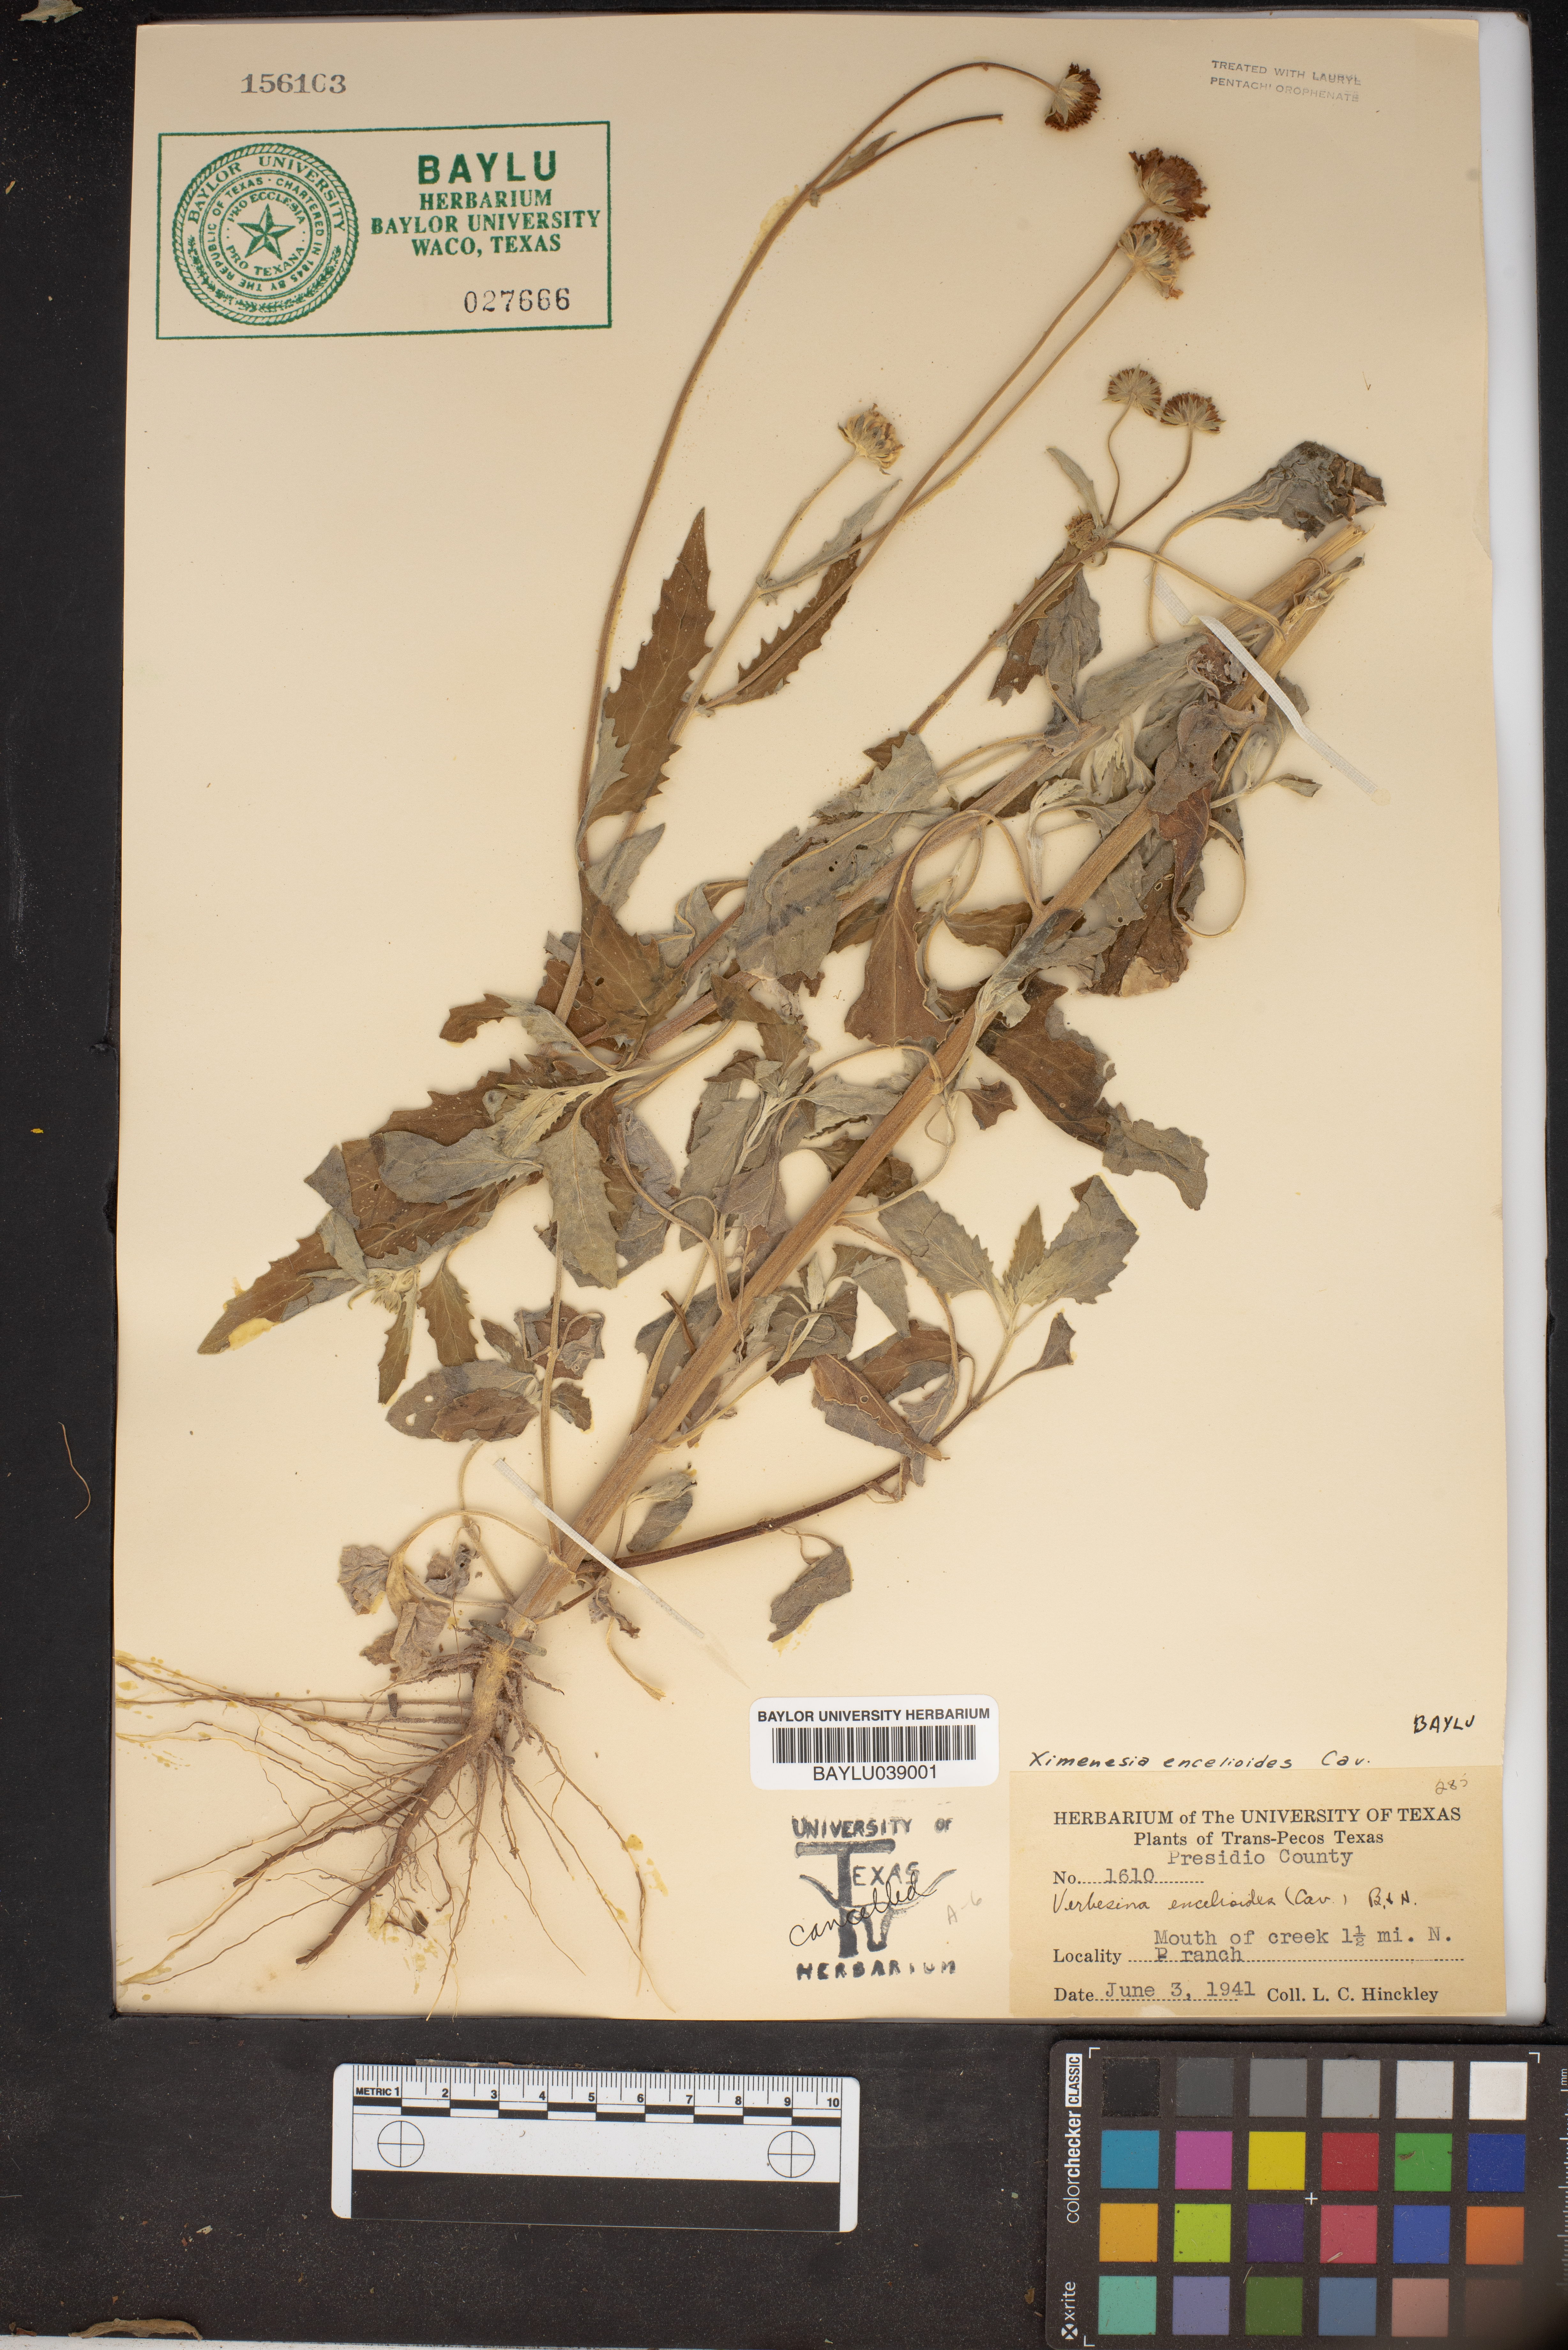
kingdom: Plantae
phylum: Tracheophyta
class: Magnoliopsida
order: Asterales
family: Asteraceae
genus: Verbesina
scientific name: Verbesina encelioides
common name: Golden crownbeard
